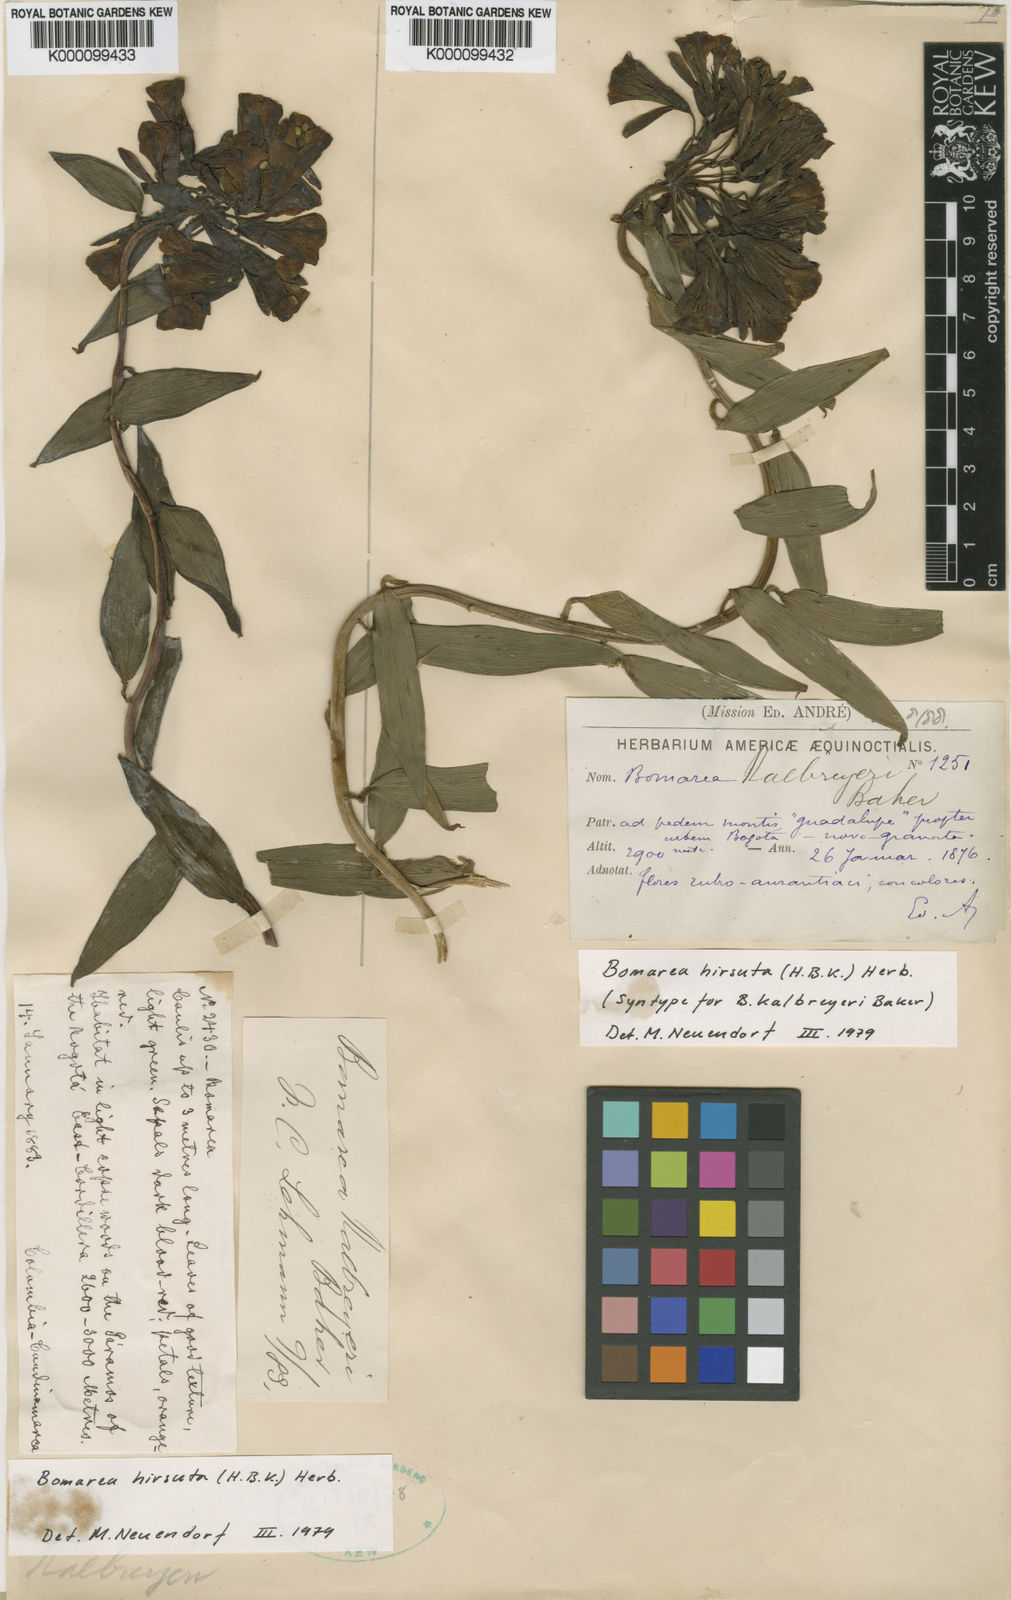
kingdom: Plantae
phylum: Tracheophyta
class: Liliopsida
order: Liliales
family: Alstroemeriaceae
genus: Bomarea
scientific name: Bomarea hirsuta
